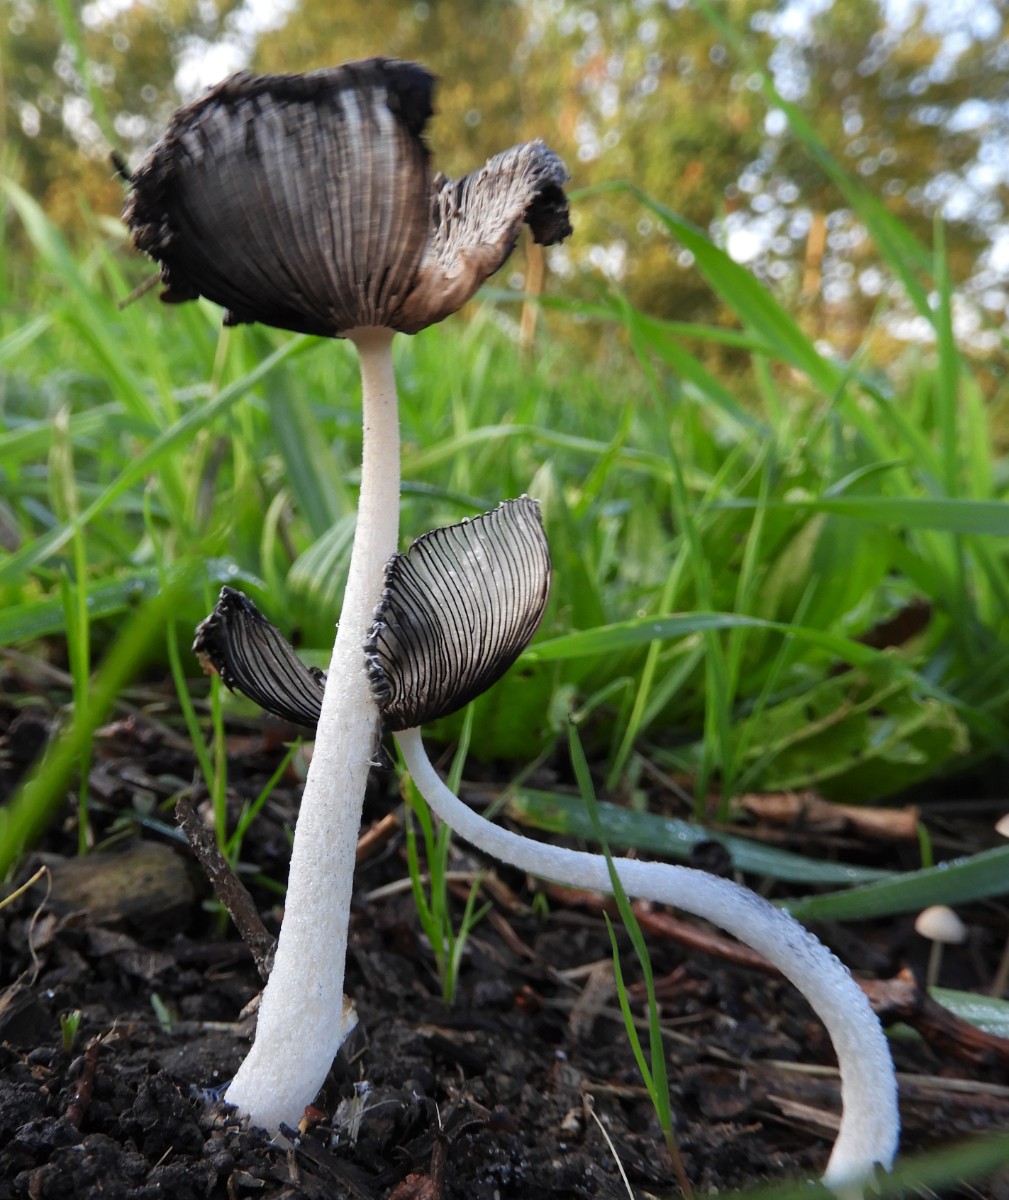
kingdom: Fungi
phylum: Basidiomycota
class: Agaricomycetes
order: Agaricales
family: Psathyrellaceae
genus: Coprinopsis
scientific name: Coprinopsis lagopus
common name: dunstokket blækhat
